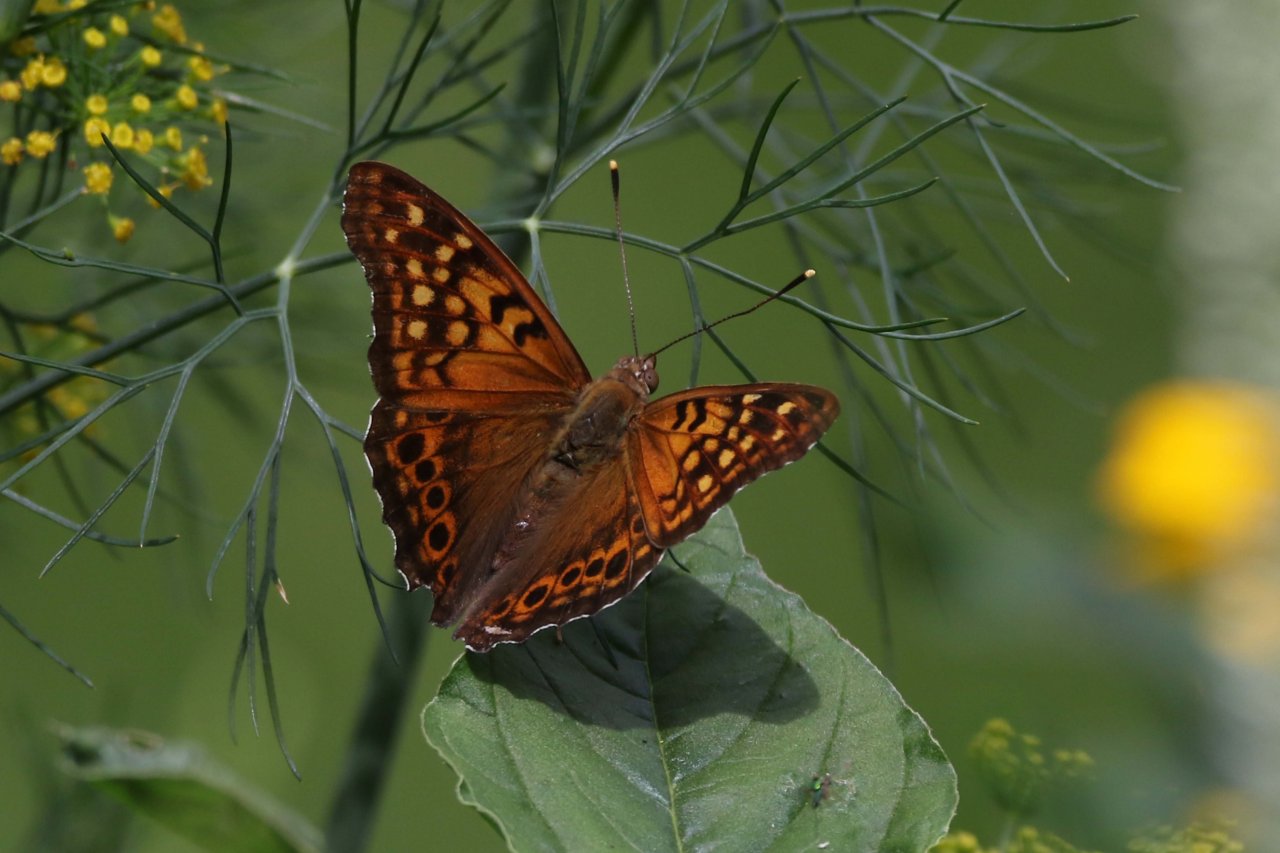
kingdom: Animalia
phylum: Arthropoda
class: Insecta
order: Lepidoptera
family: Nymphalidae
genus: Asterocampa
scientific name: Asterocampa clyton
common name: Tawny Emperor
